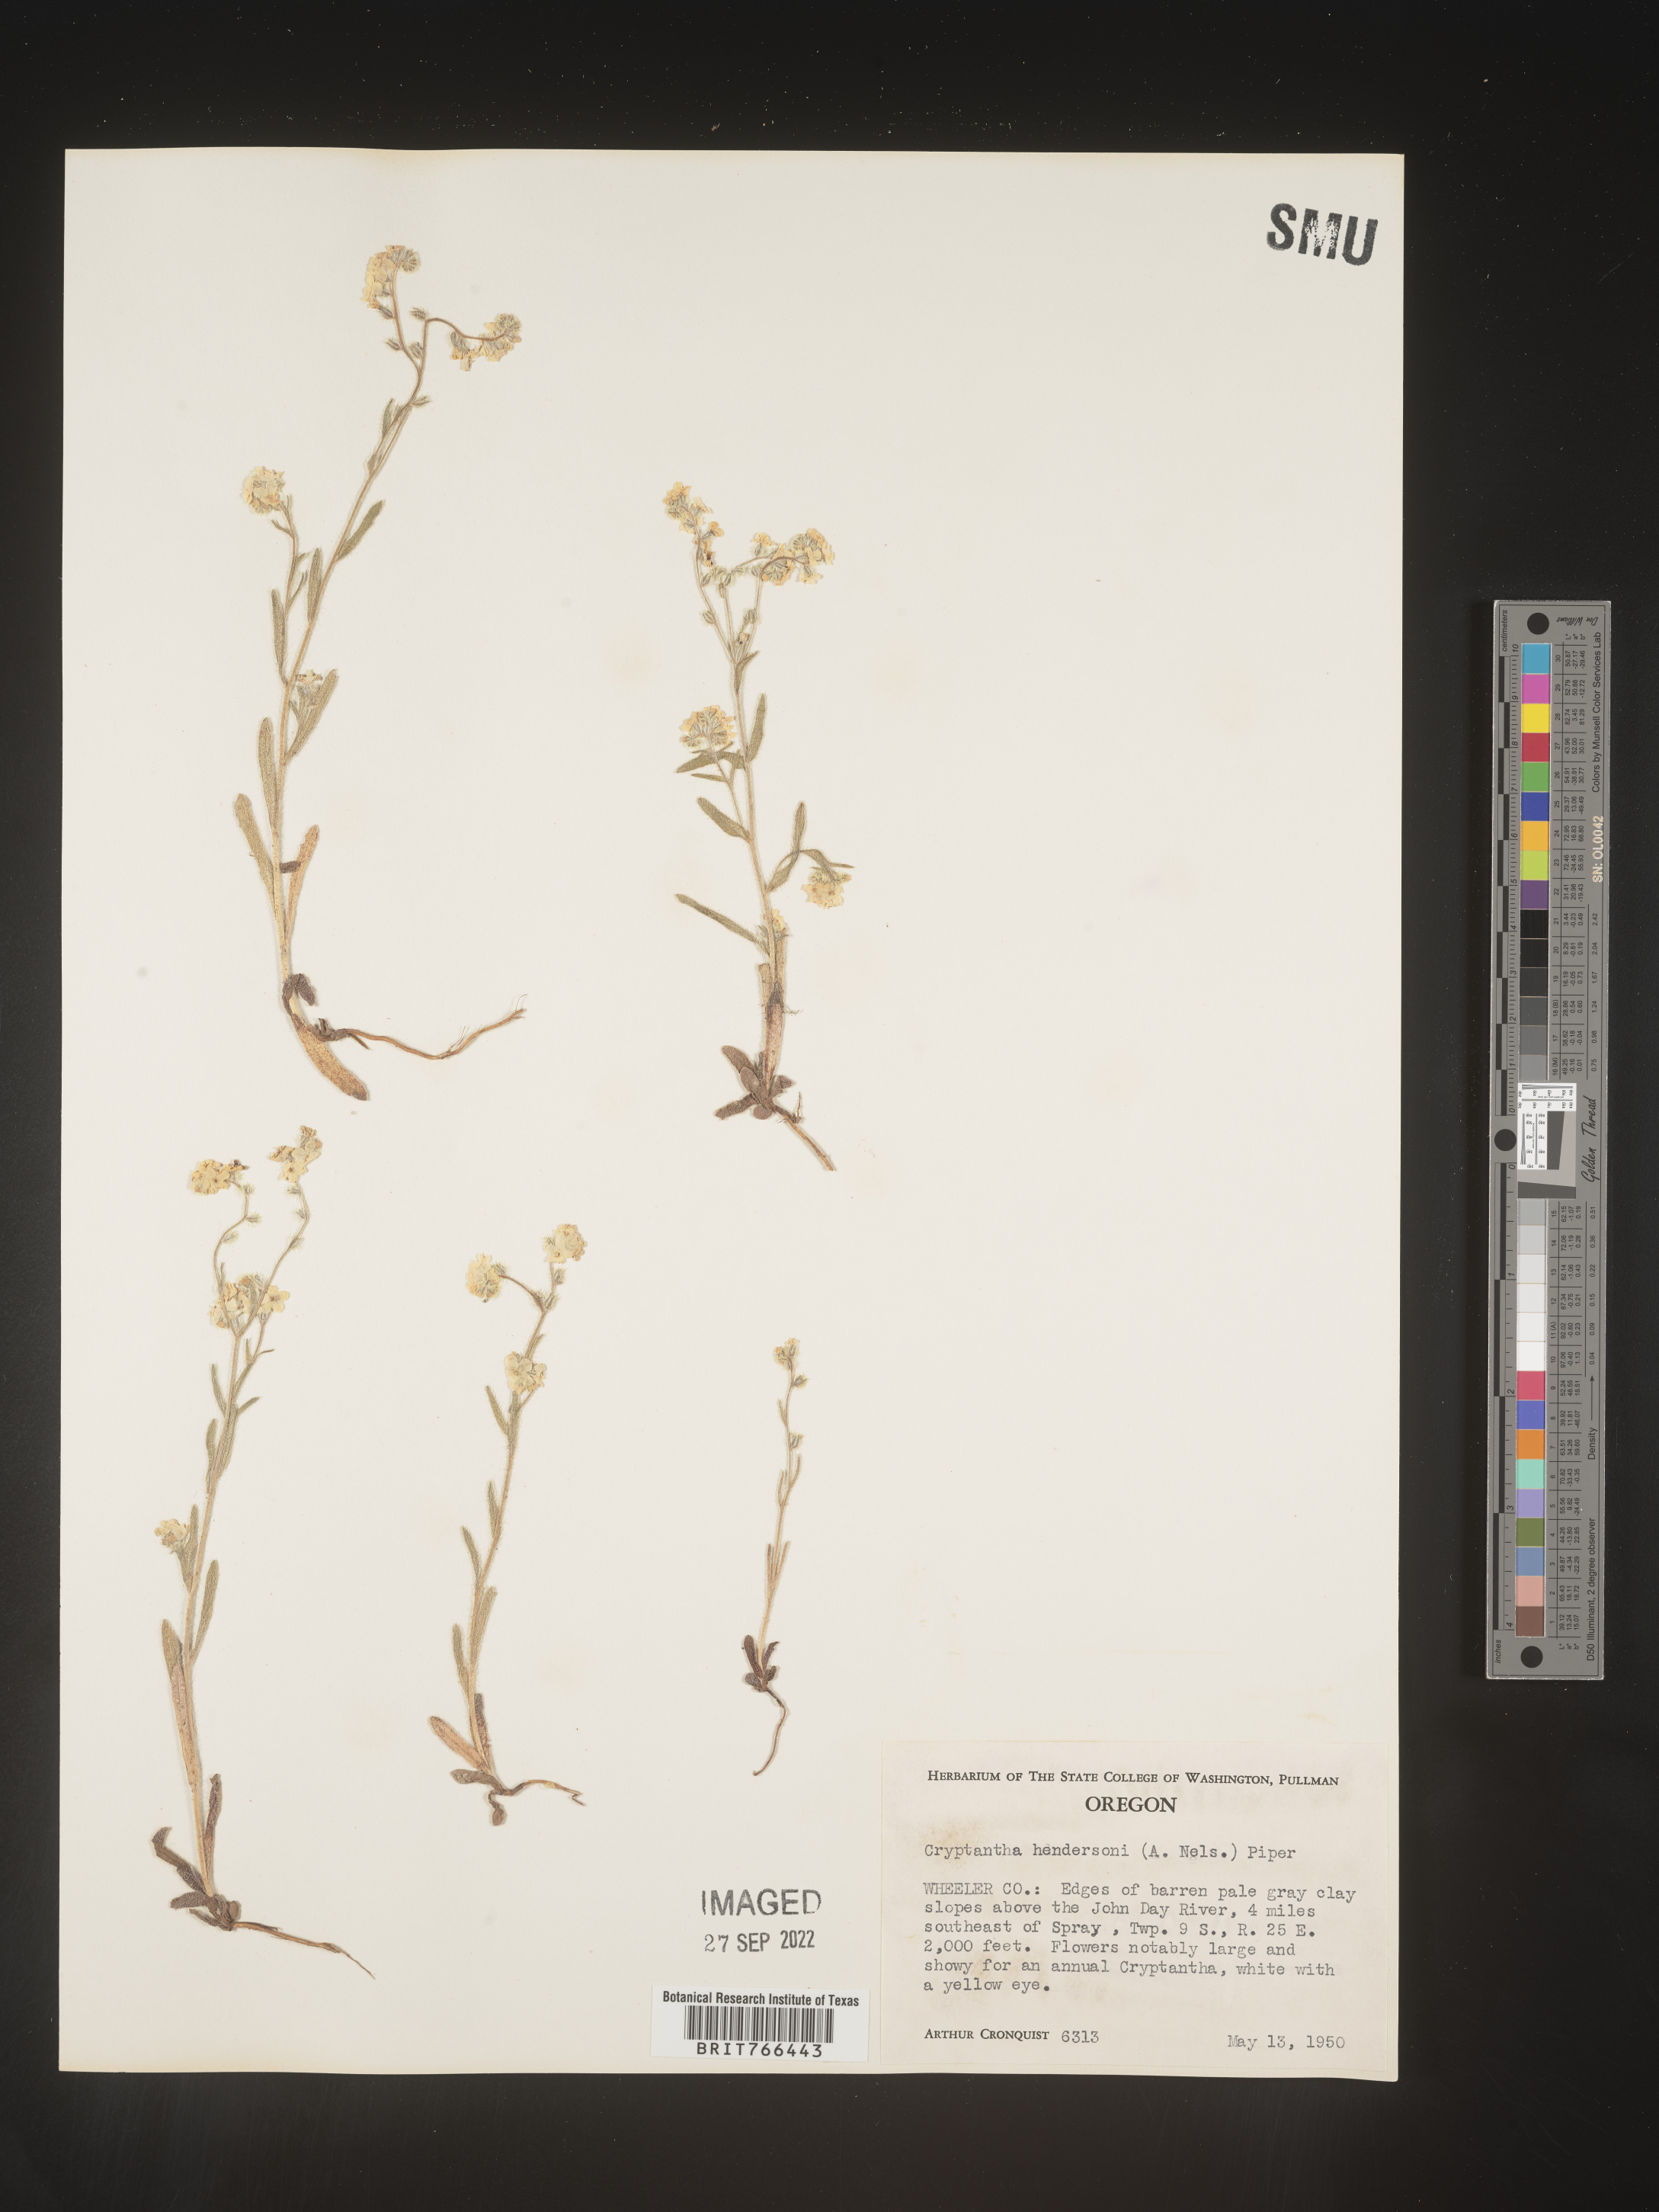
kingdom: Plantae
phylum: Tracheophyta
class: Magnoliopsida
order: Boraginales
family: Boraginaceae
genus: Cryptantha
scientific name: Cryptantha
